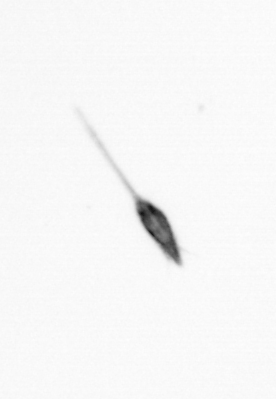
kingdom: Animalia
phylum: Arthropoda
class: Copepoda
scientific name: Copepoda
